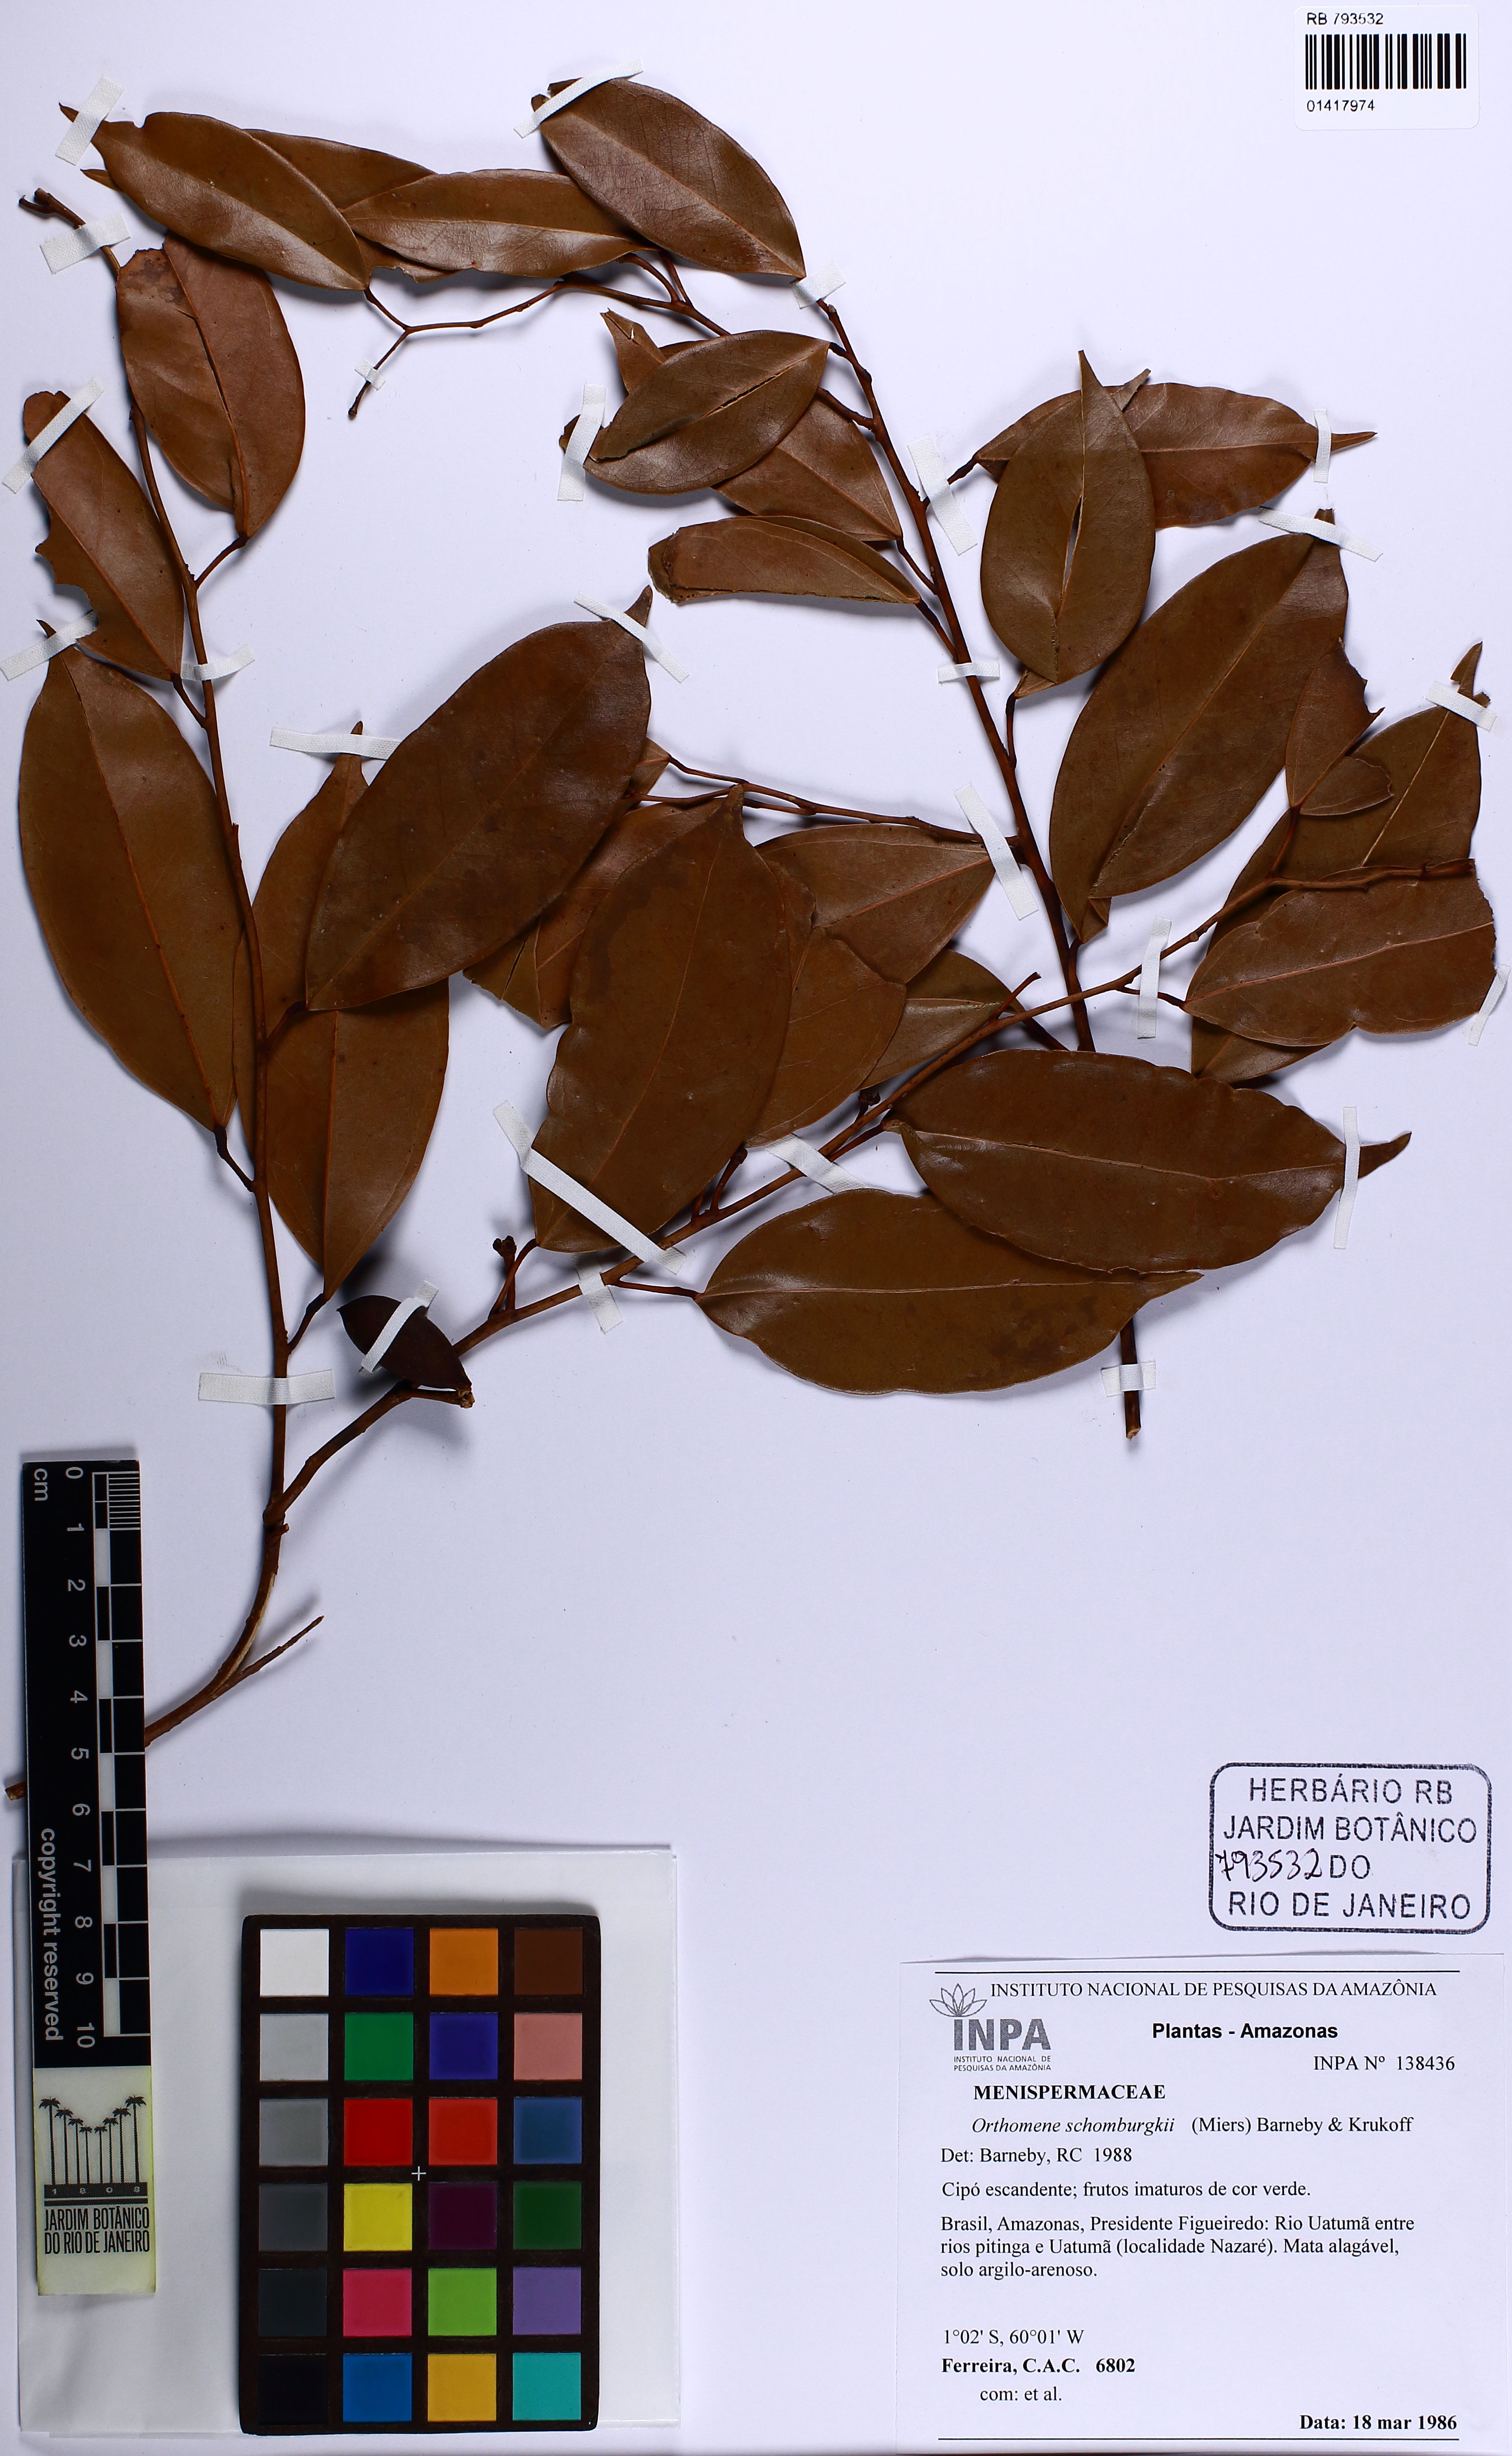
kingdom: Plantae
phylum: Tracheophyta
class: Magnoliopsida
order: Ranunculales
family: Menispermaceae
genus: Orthomene
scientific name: Orthomene schomburgkii
